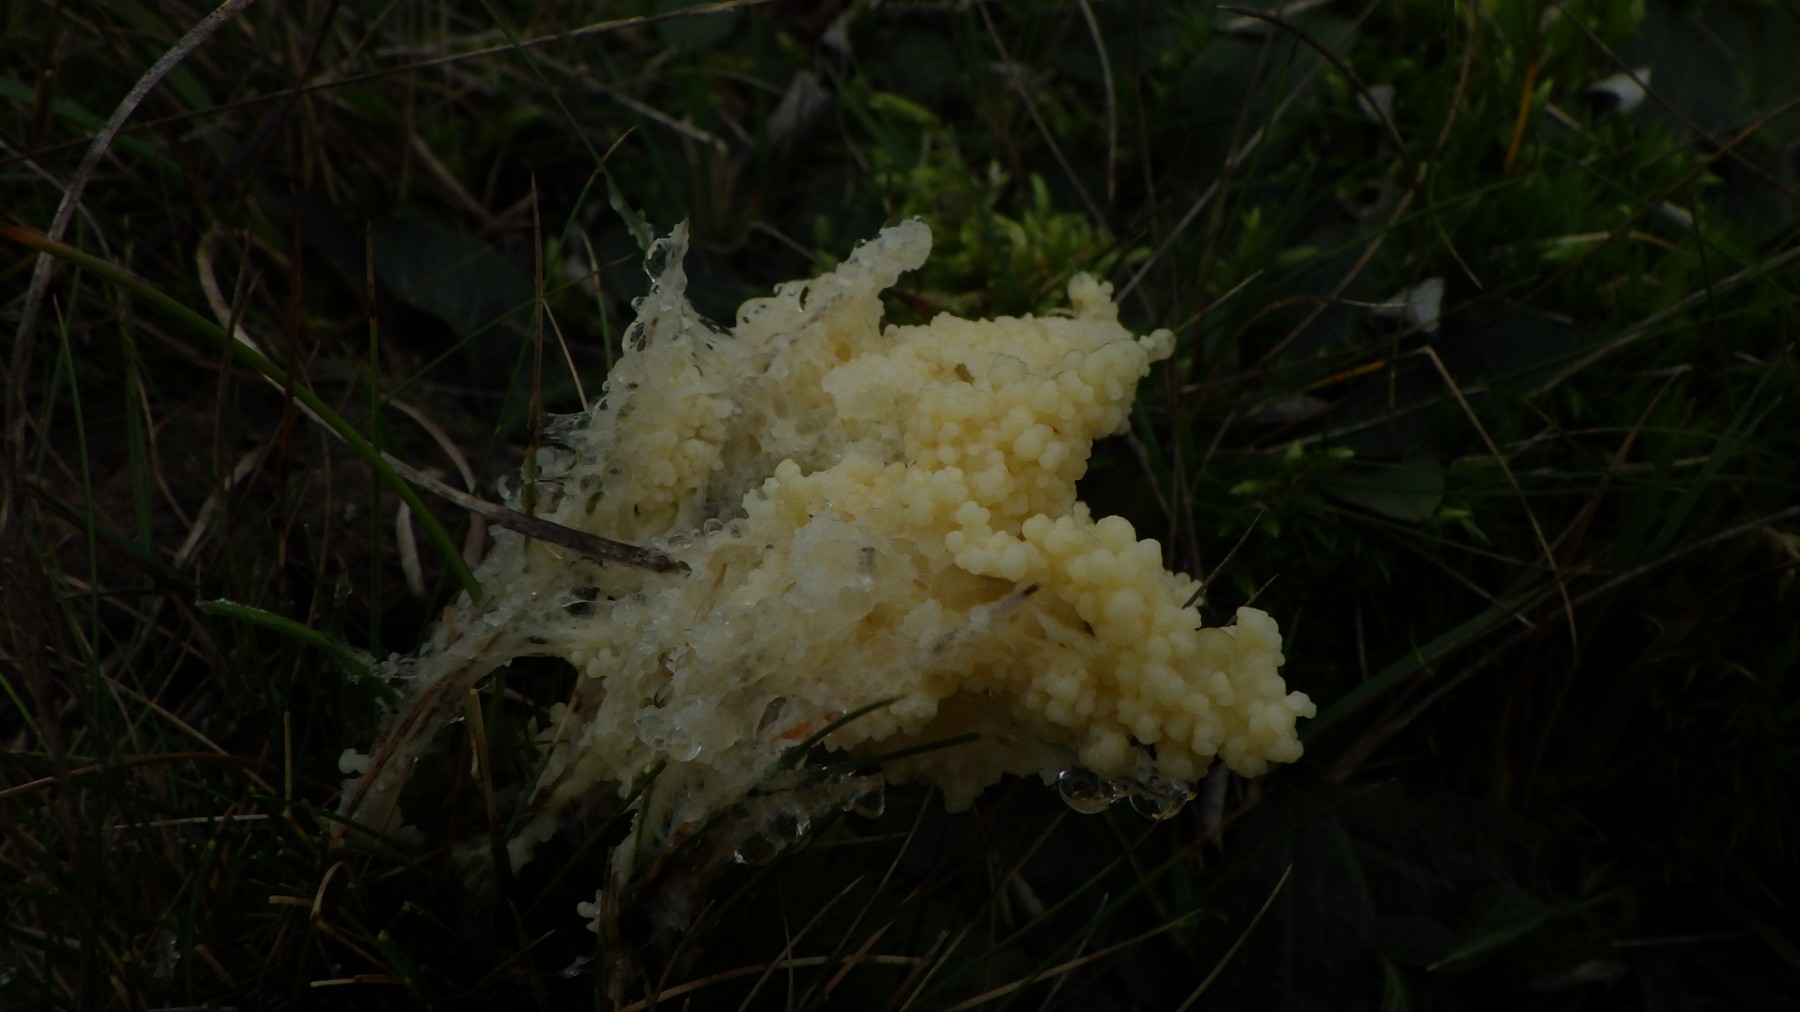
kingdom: Protozoa
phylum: Mycetozoa
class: Myxomycetes
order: Physarales
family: Physaraceae
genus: Didymium
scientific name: Didymium
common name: urteskum
